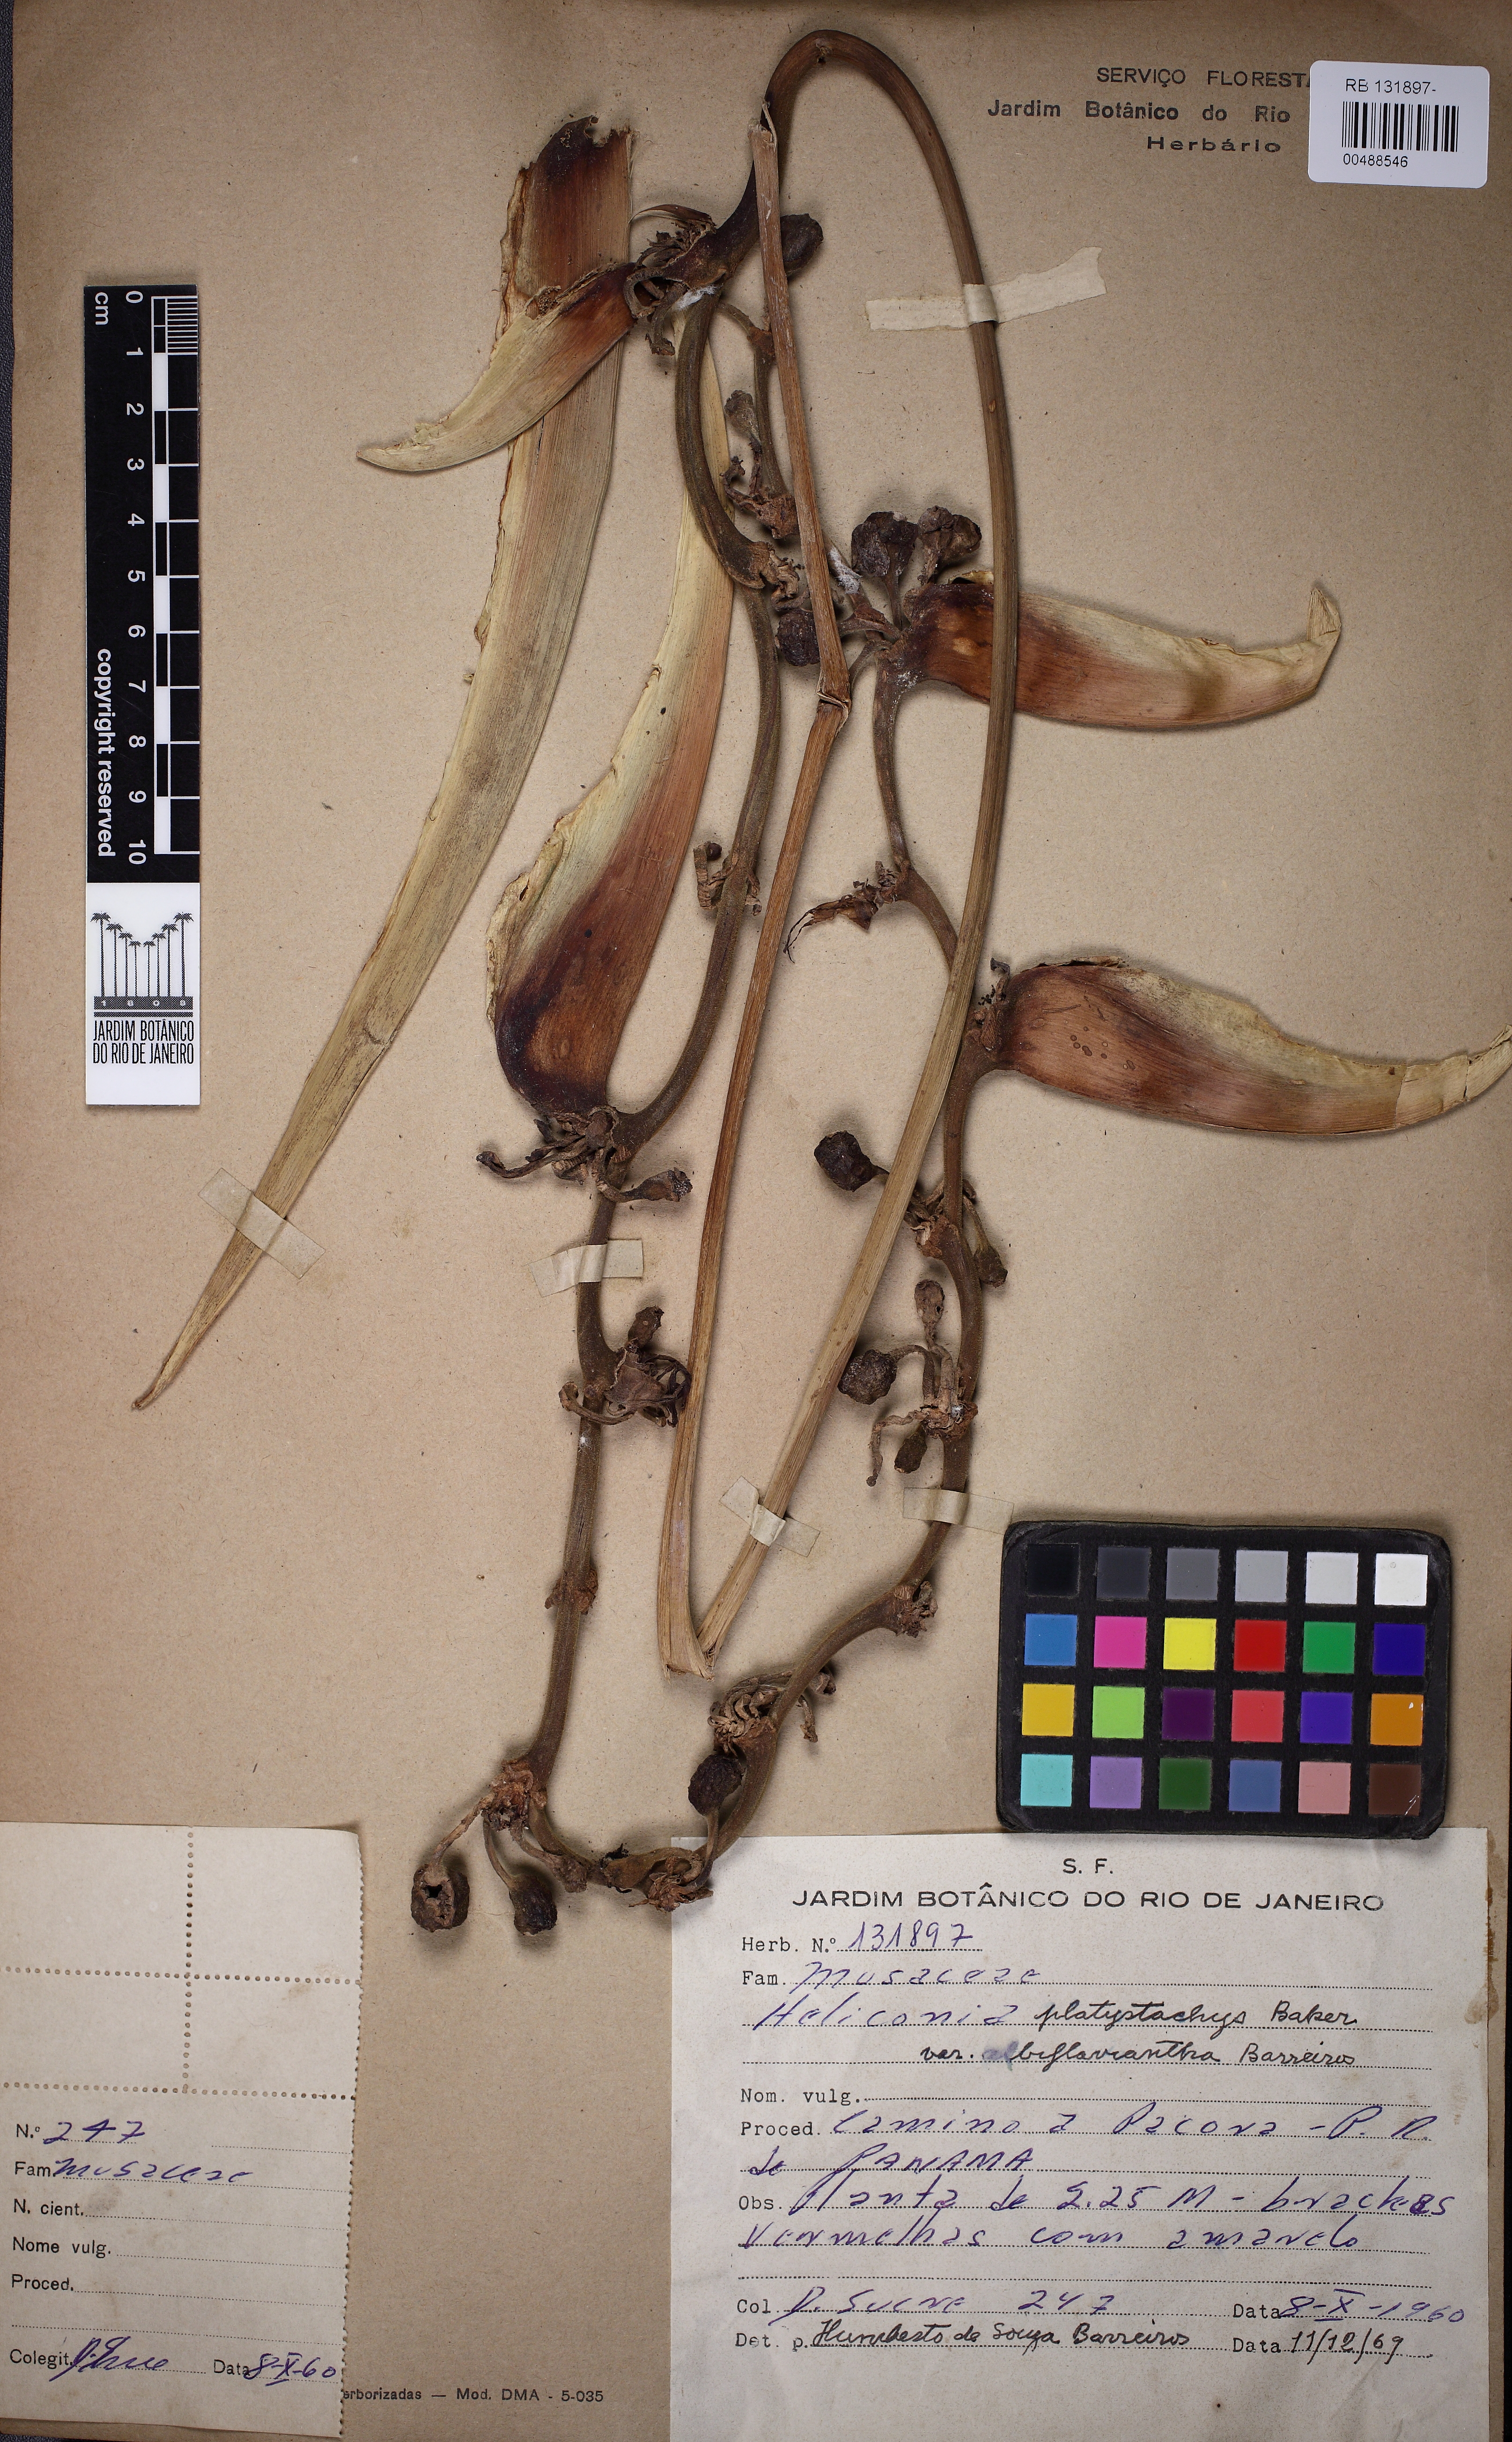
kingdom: Plantae
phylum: Tracheophyta
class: Liliopsida
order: Zingiberales
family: Heliconiaceae
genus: Heliconia
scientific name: Heliconia platystachys
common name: False bird of paradise
